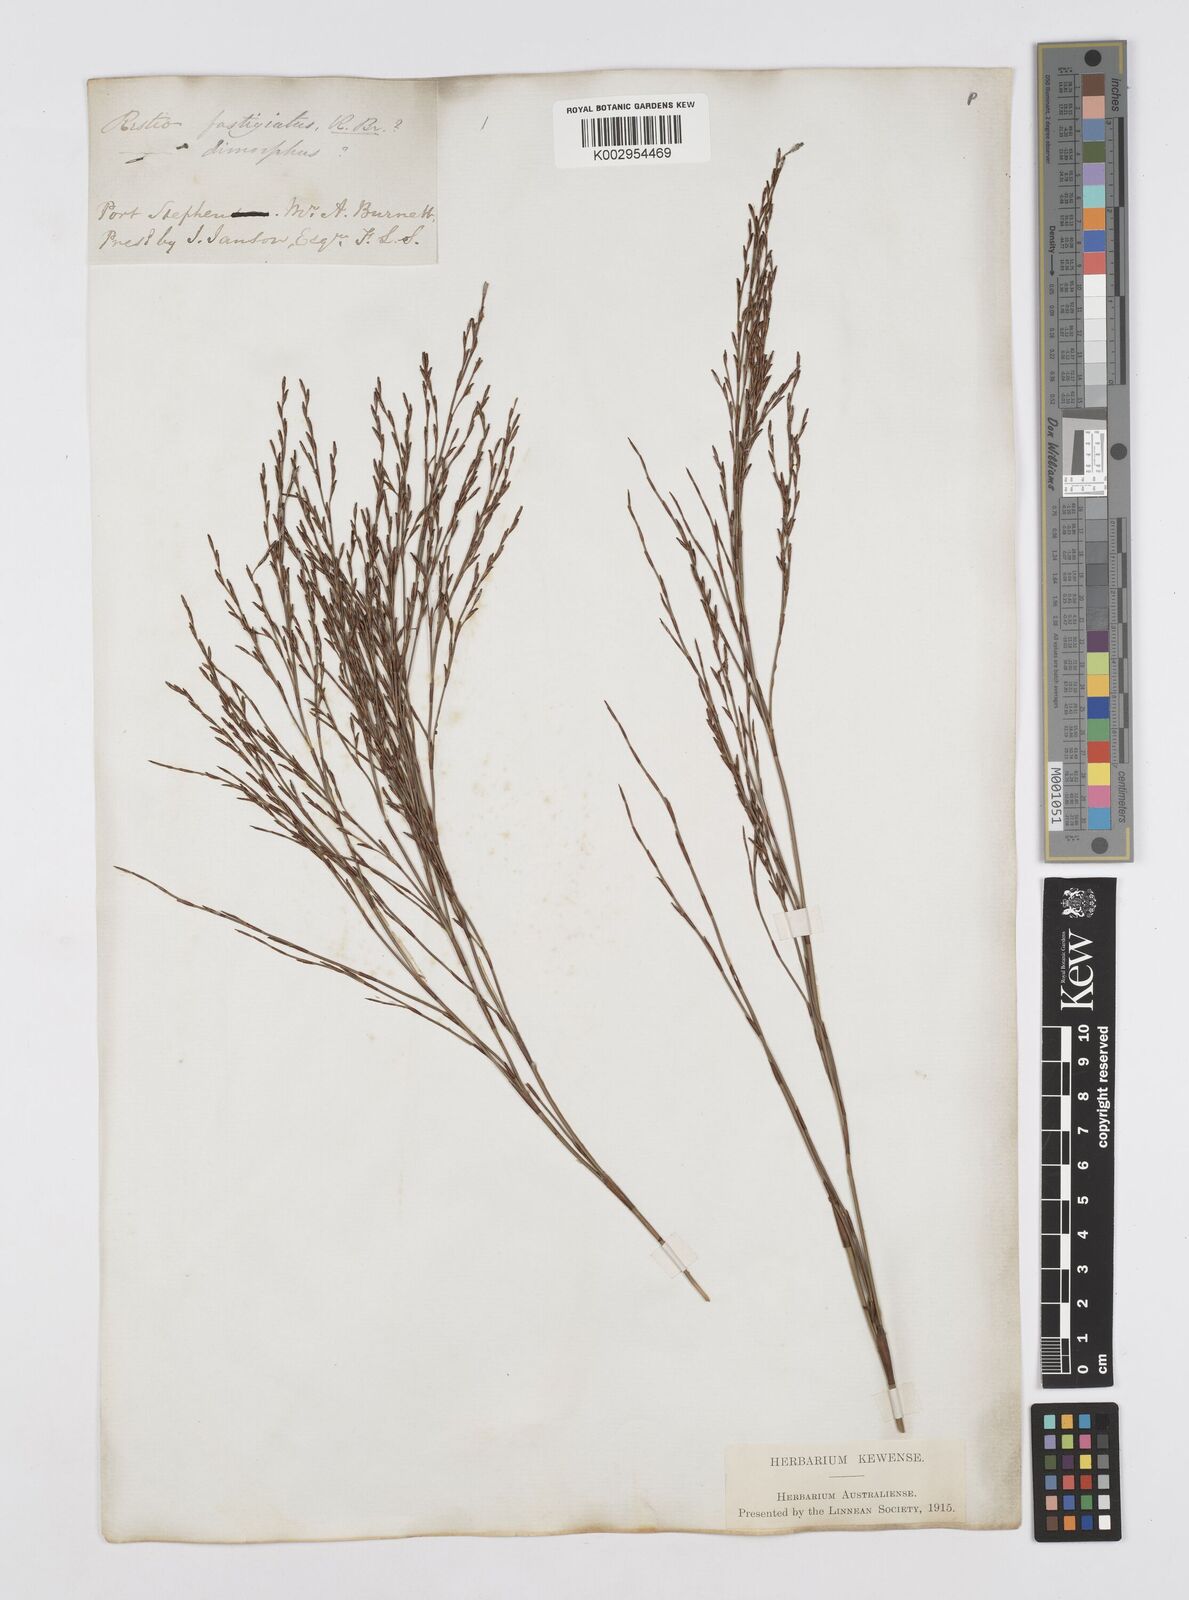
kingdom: Plantae
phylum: Tracheophyta
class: Liliopsida
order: Poales
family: Restionaceae
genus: Chordifex
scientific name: Chordifex fastigiatus
